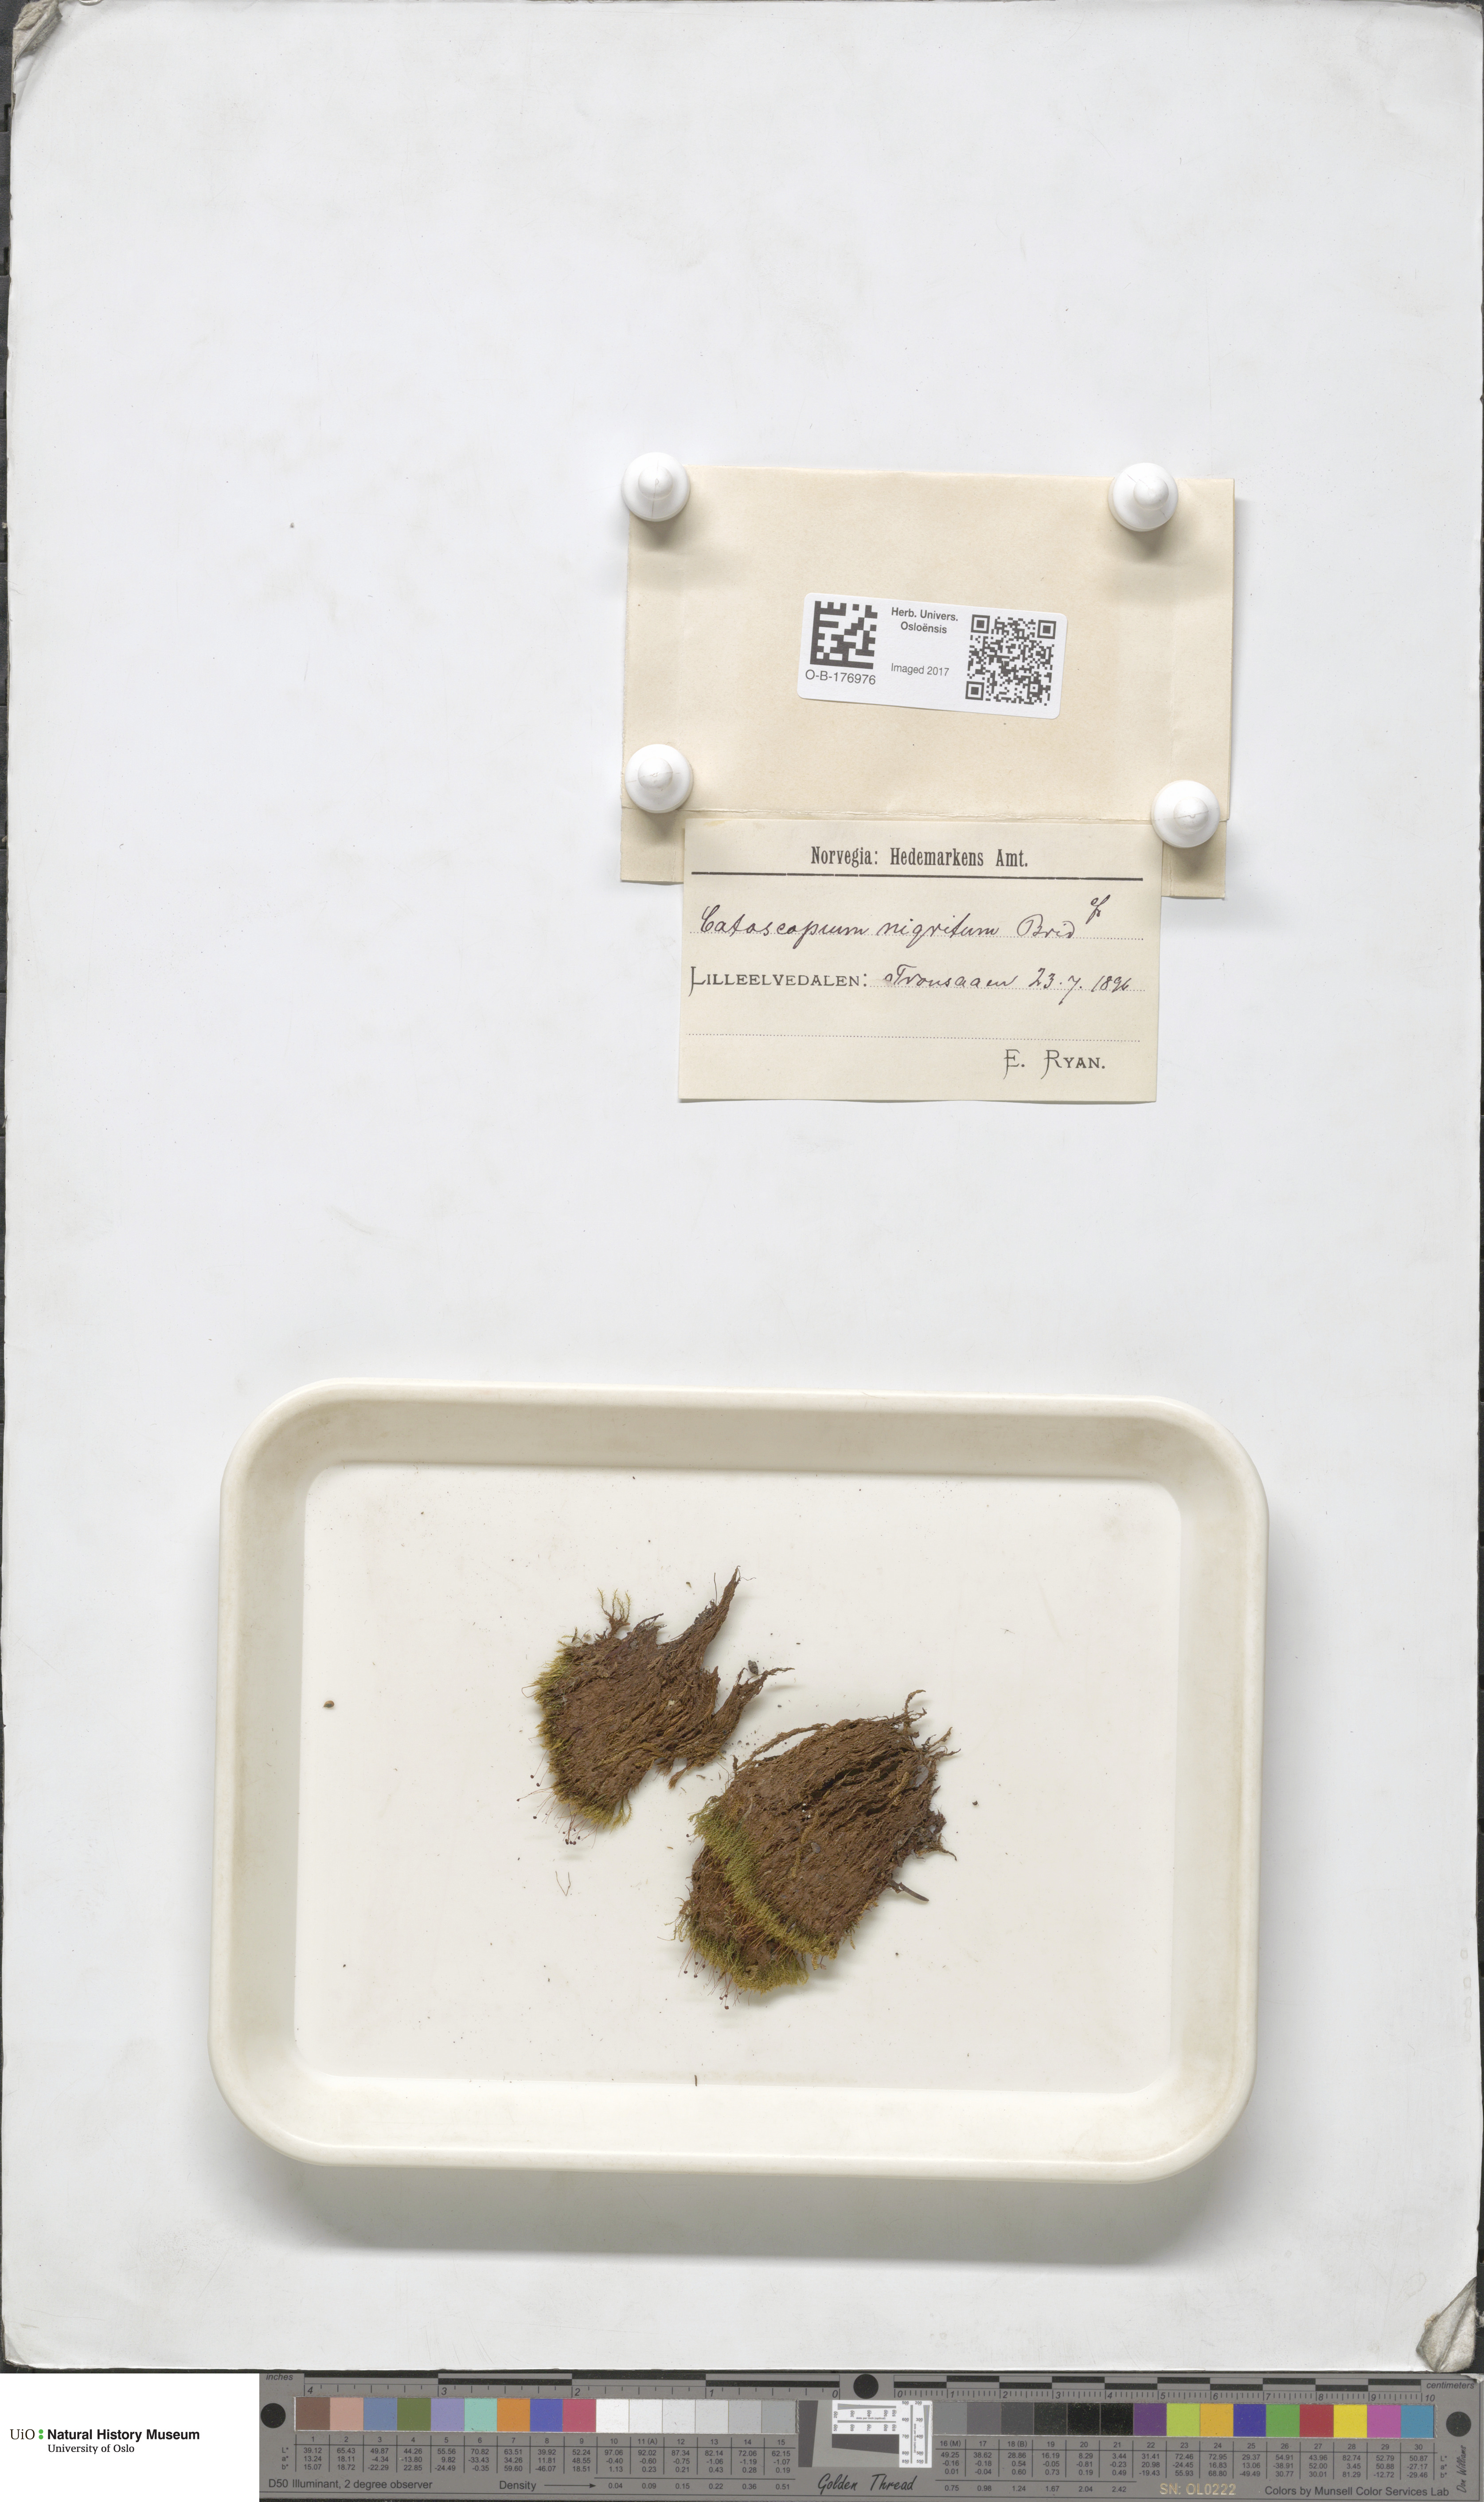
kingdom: Plantae
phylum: Bryophyta
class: Bryopsida
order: Catoscopiales
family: Catoscopiaceae
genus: Catoscopium
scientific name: Catoscopium nigritum
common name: Black golf club moss
